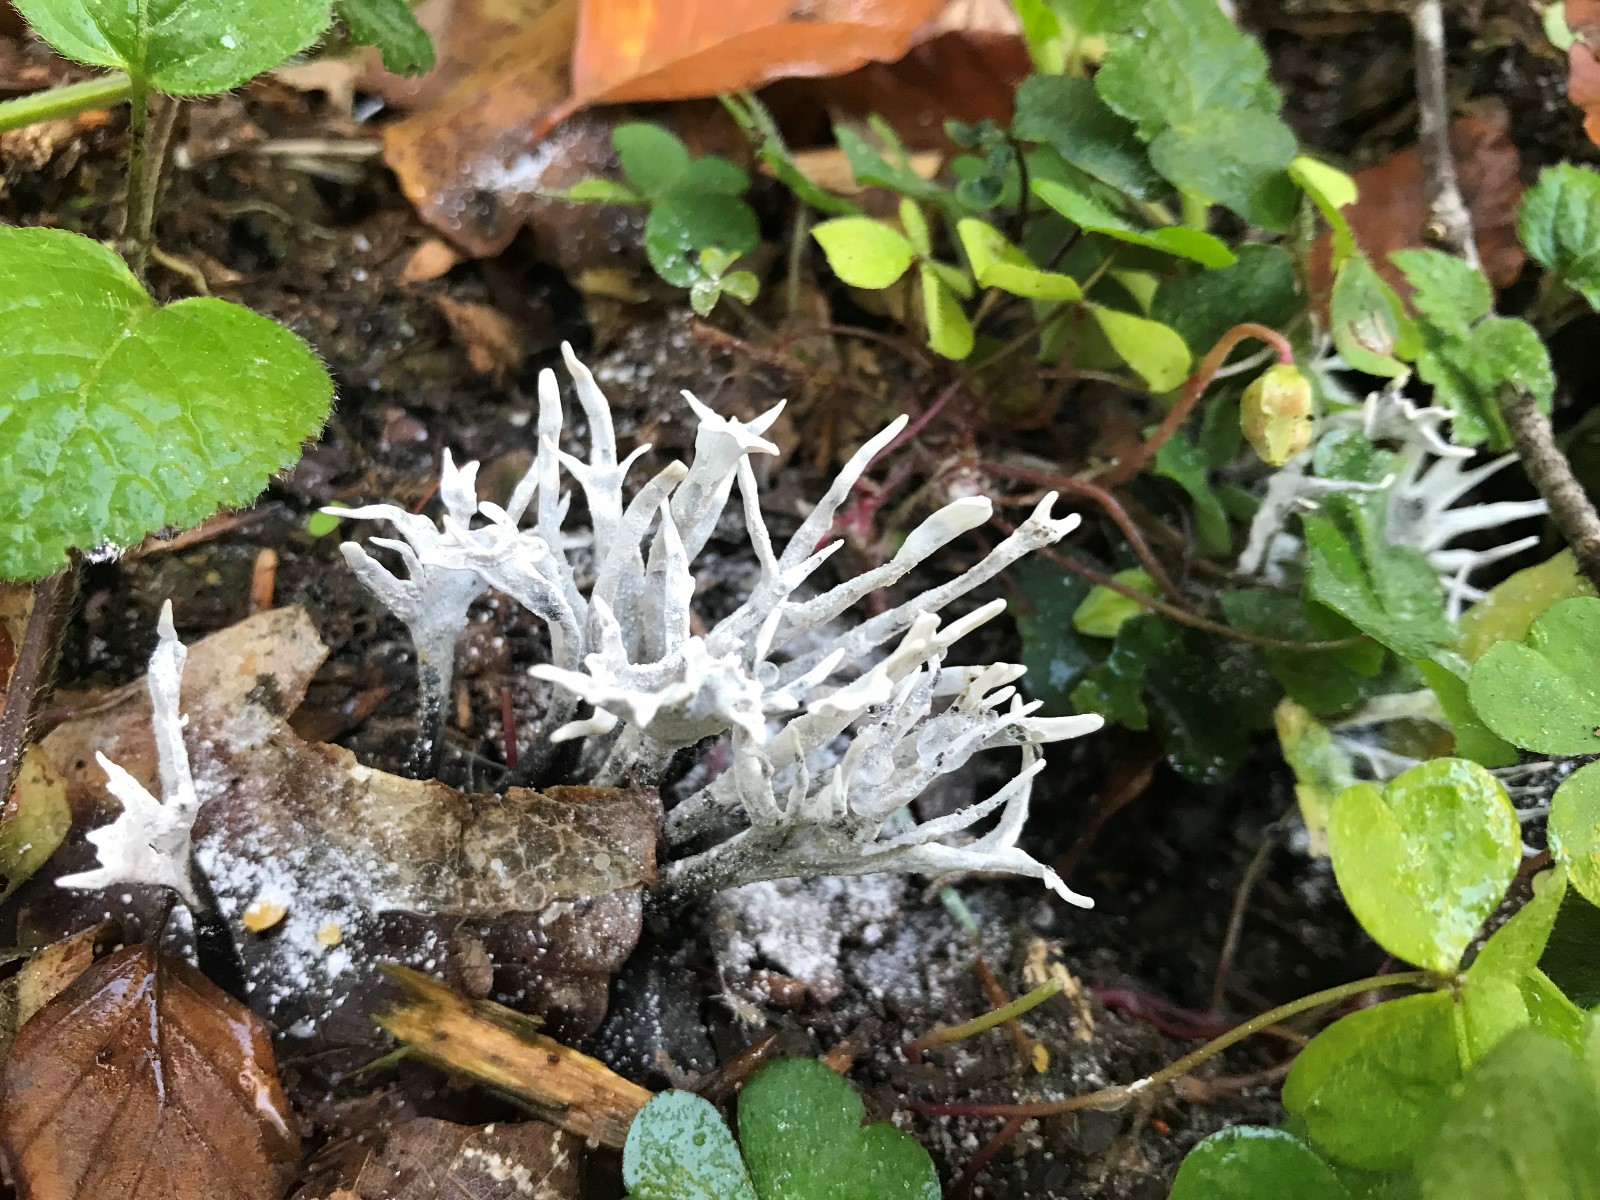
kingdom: Fungi
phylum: Ascomycota
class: Sordariomycetes
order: Xylariales
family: Xylariaceae
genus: Xylaria
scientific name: Xylaria hypoxylon
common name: grenet stødsvamp
